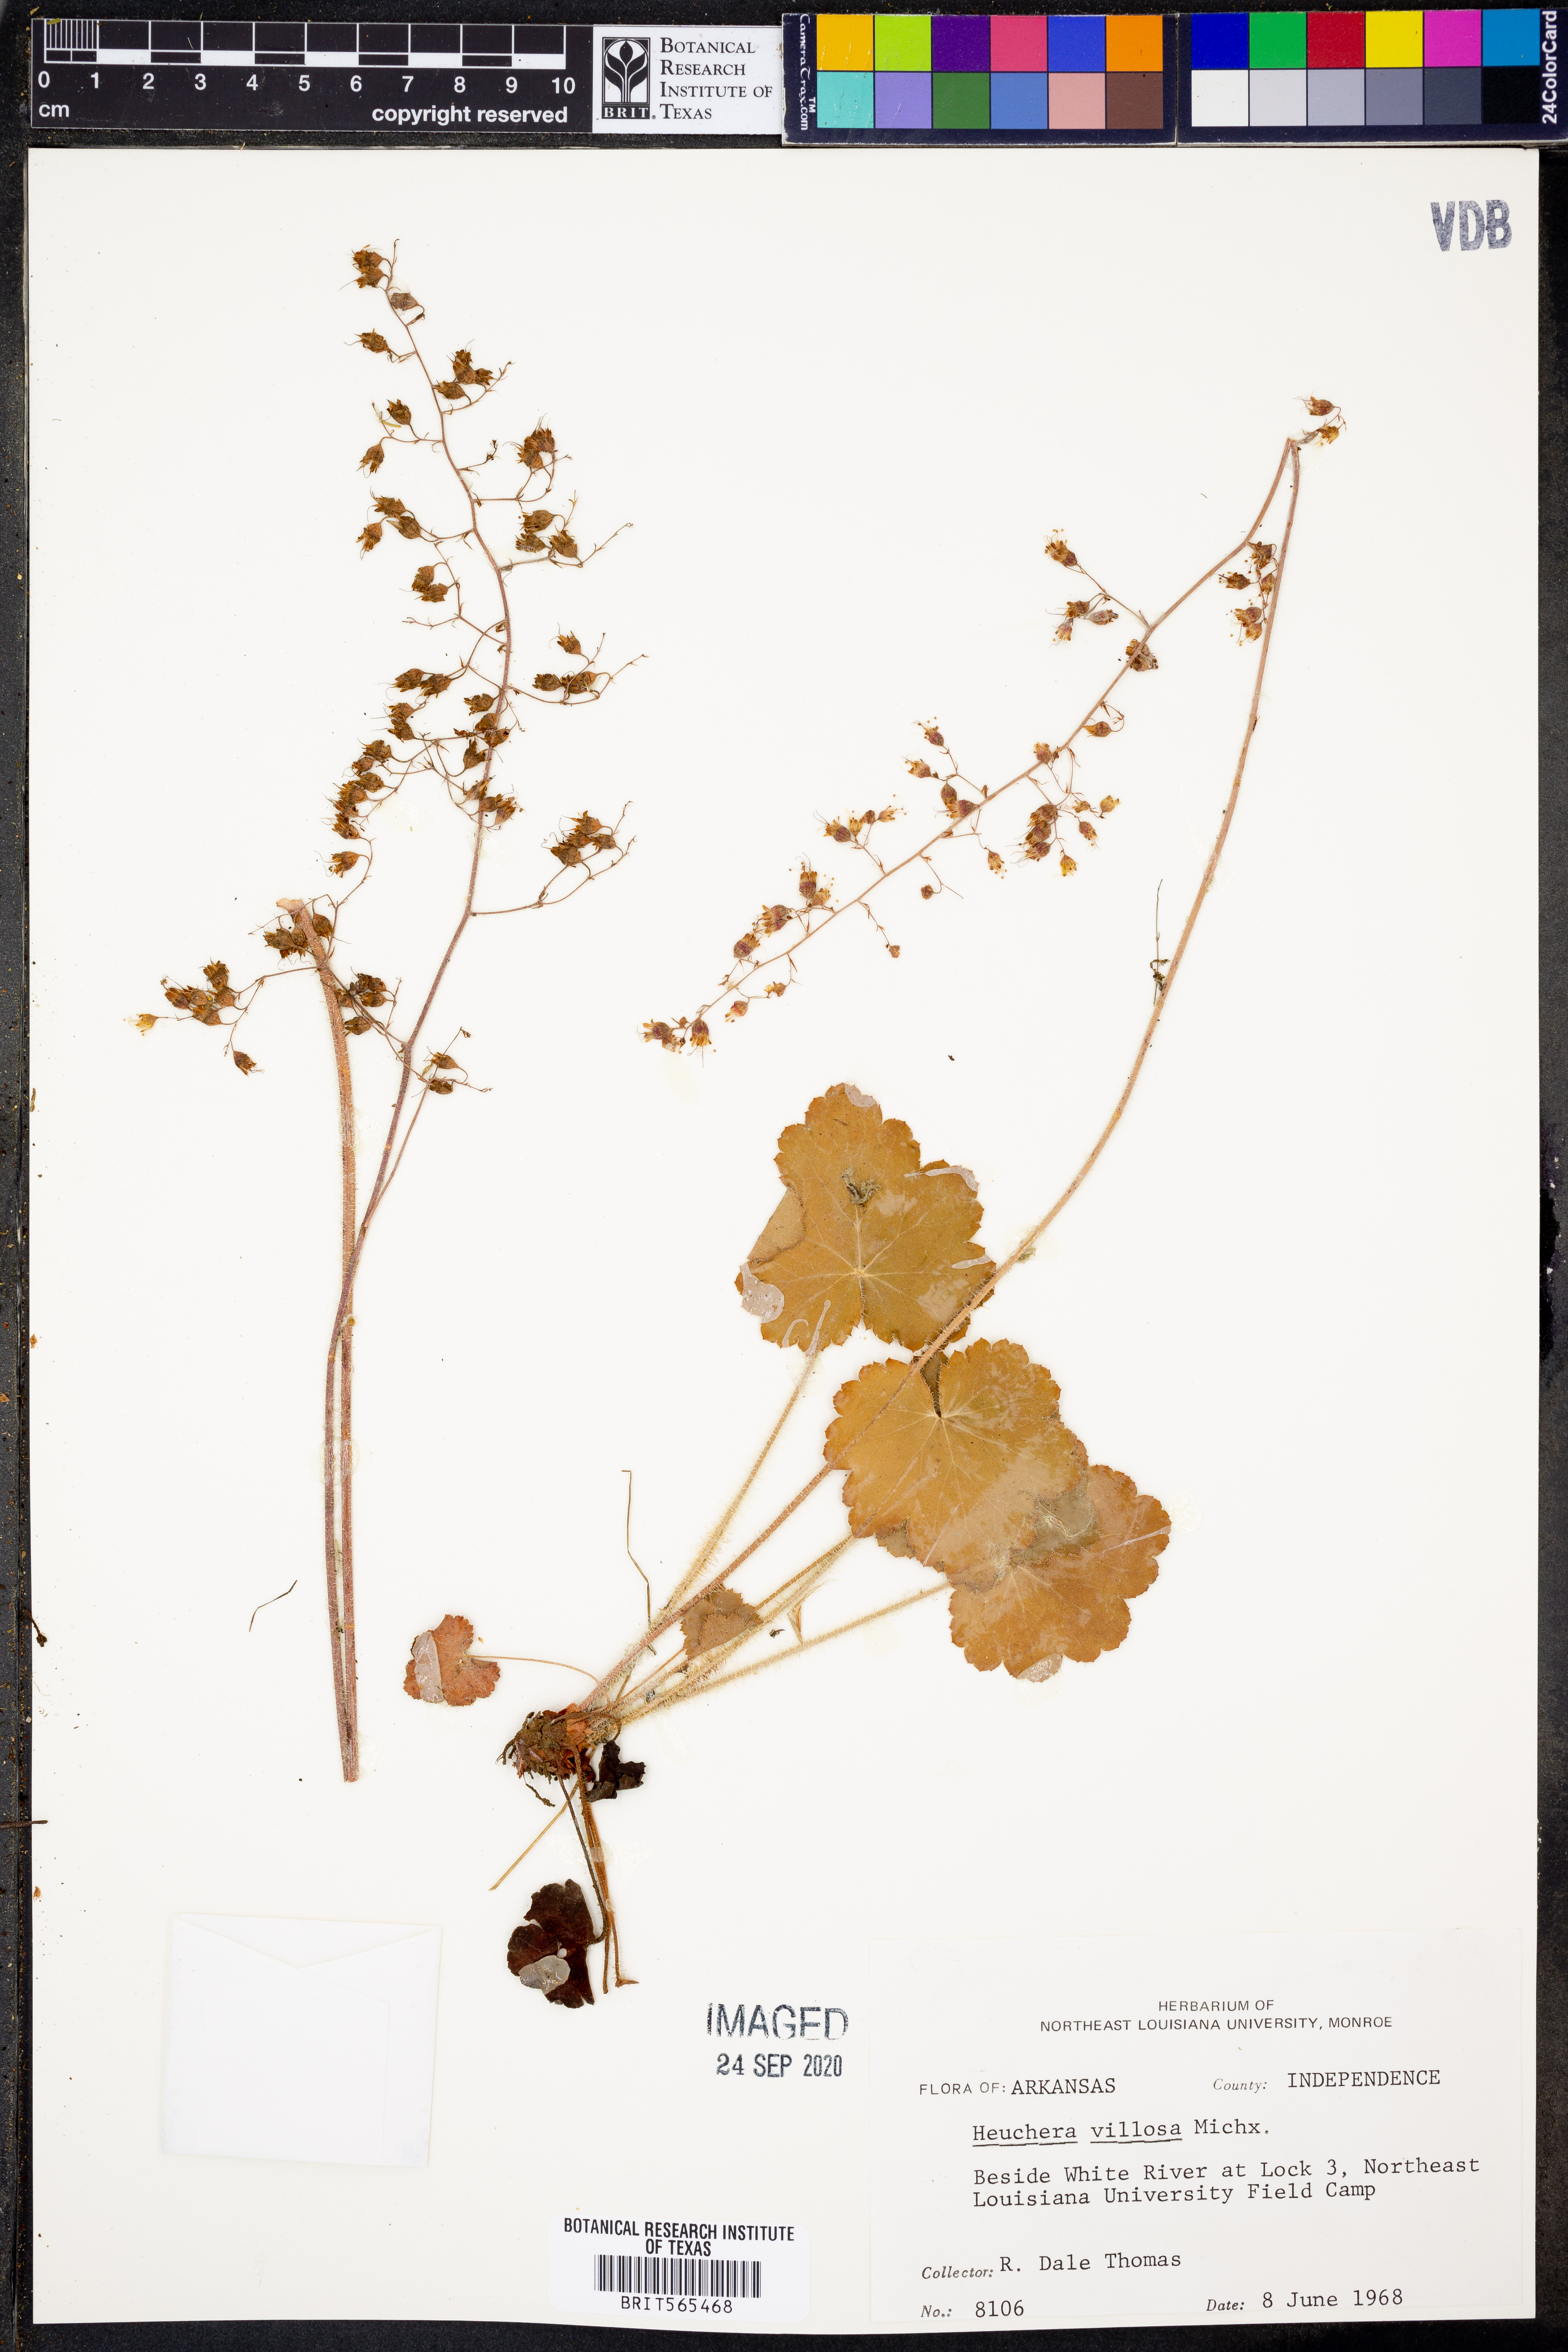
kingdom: Plantae
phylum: Tracheophyta
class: Magnoliopsida
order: Saxifragales
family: Saxifragaceae
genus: Heuchera
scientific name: Heuchera villosa
